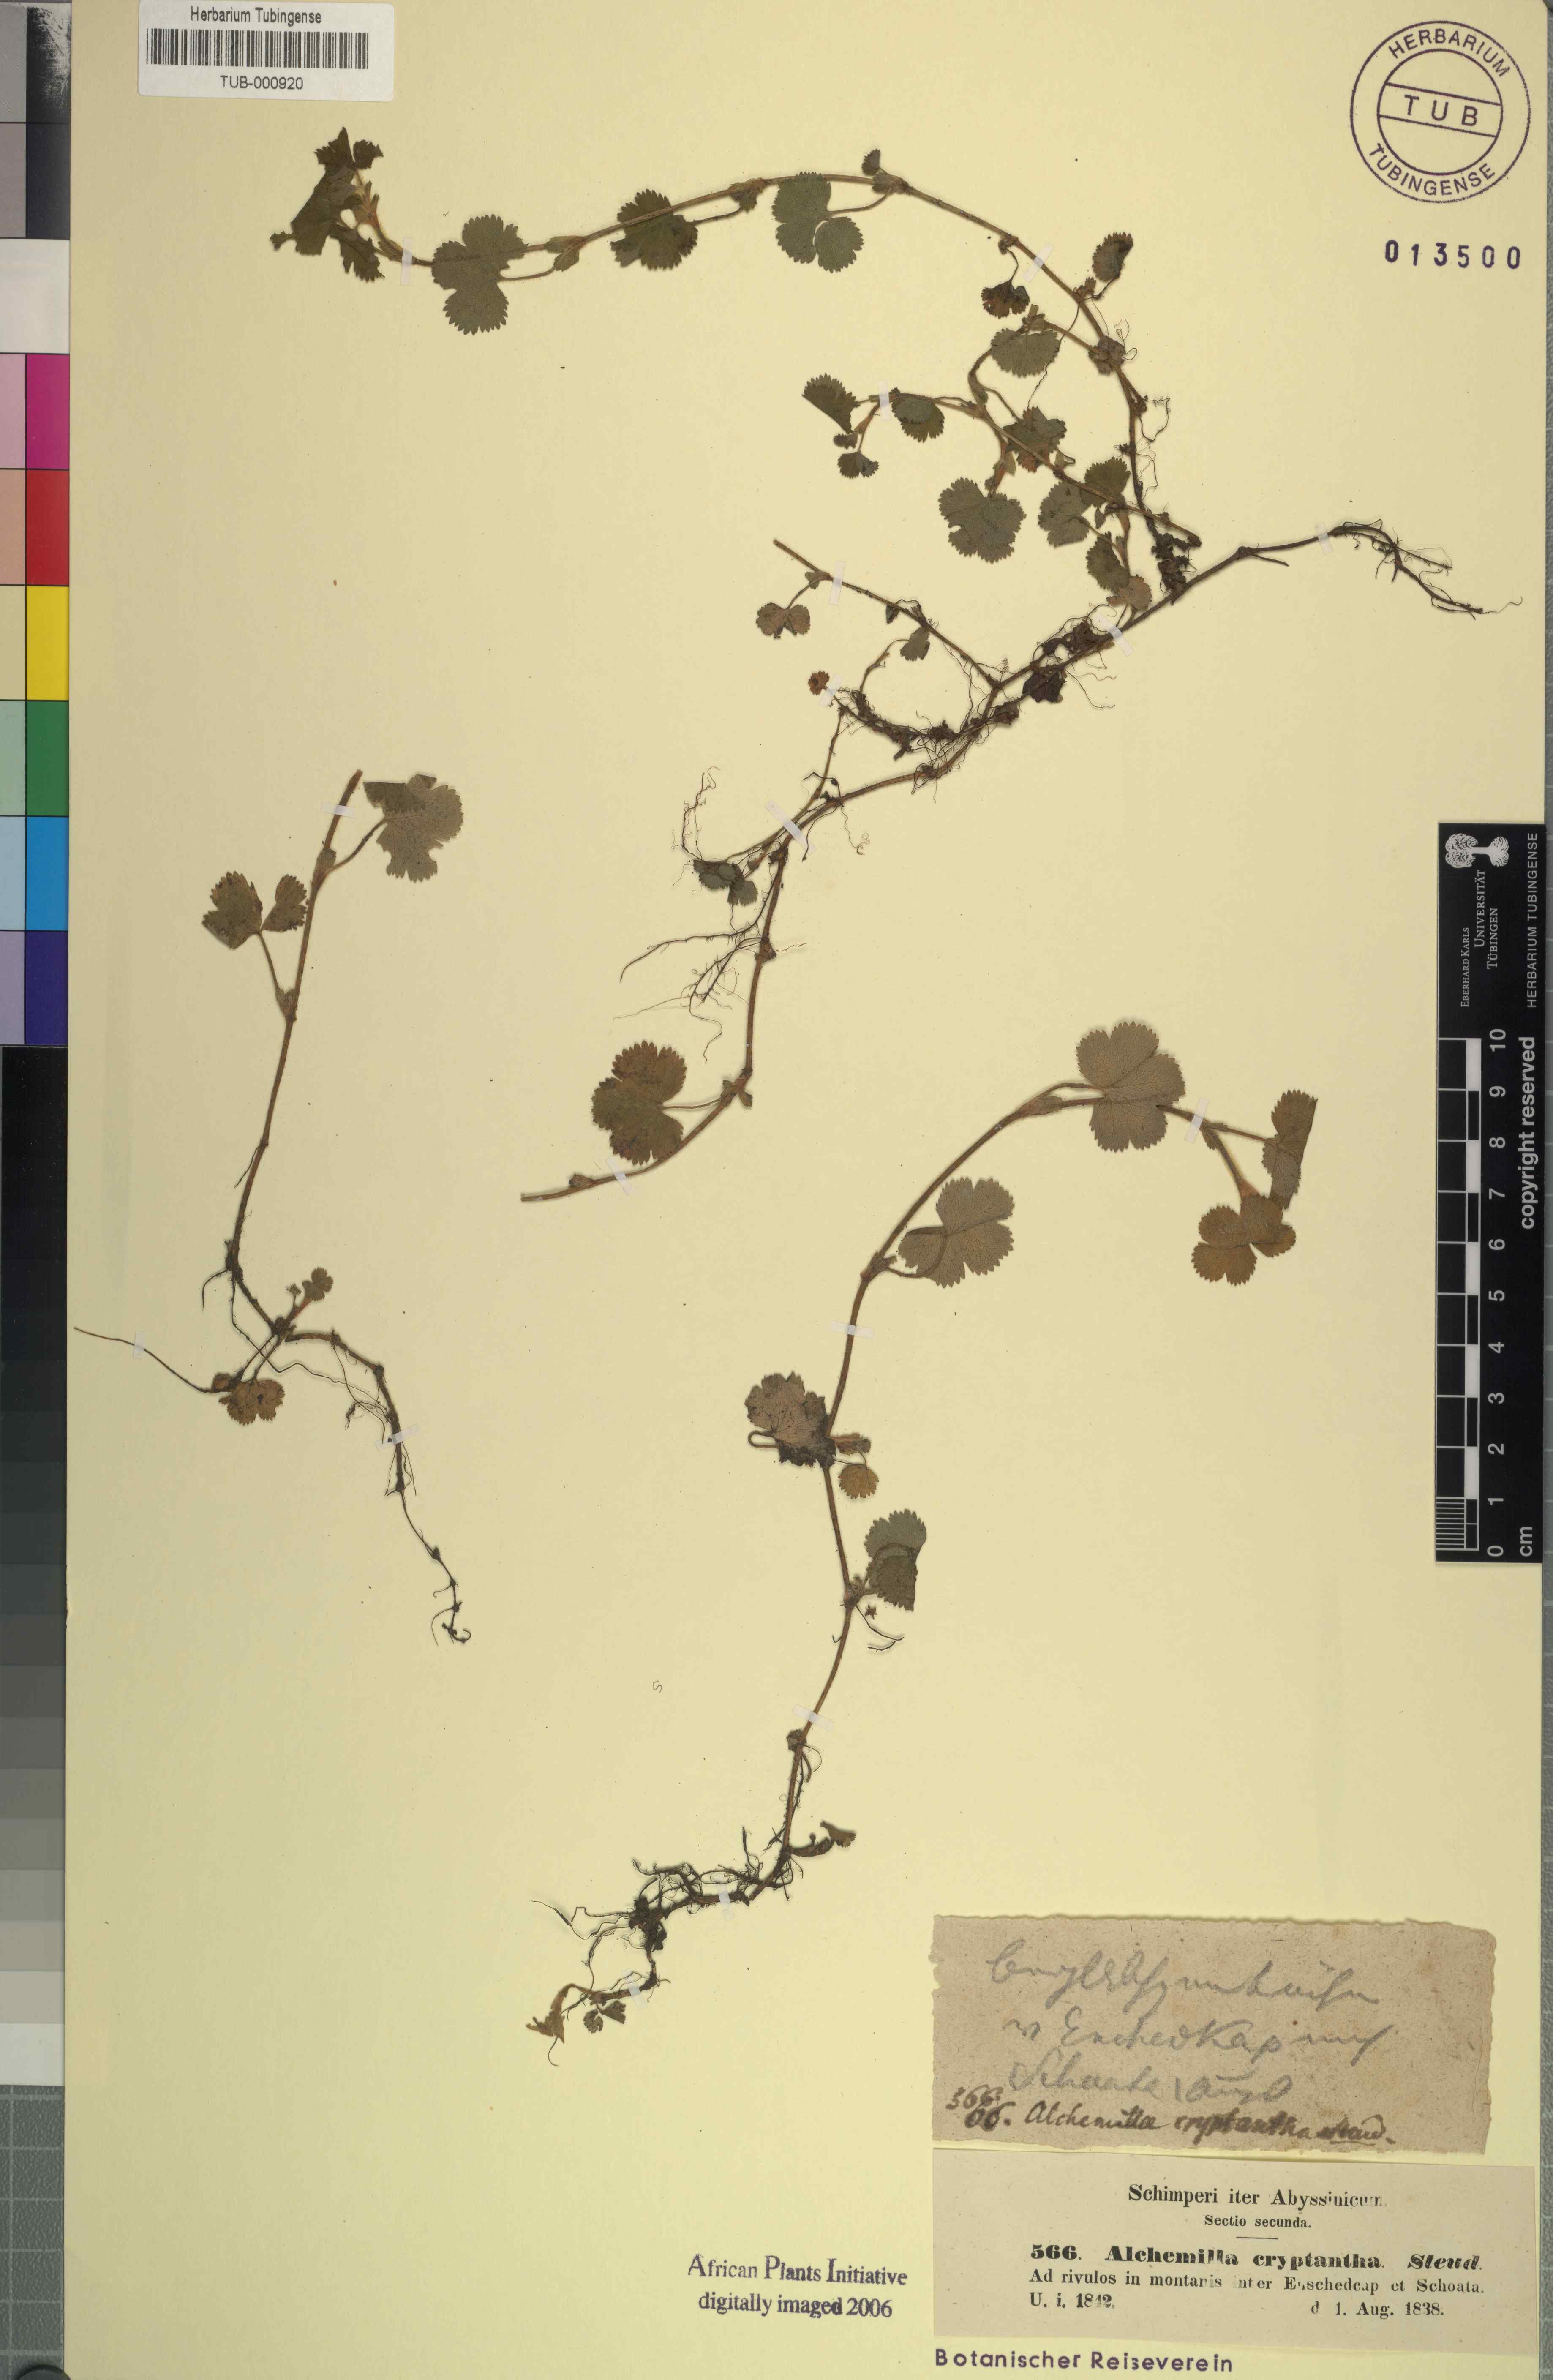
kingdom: Plantae
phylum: Tracheophyta
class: Magnoliopsida
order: Rosales
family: Rosaceae
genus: Alchemilla
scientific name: Alchemilla cryptantha
